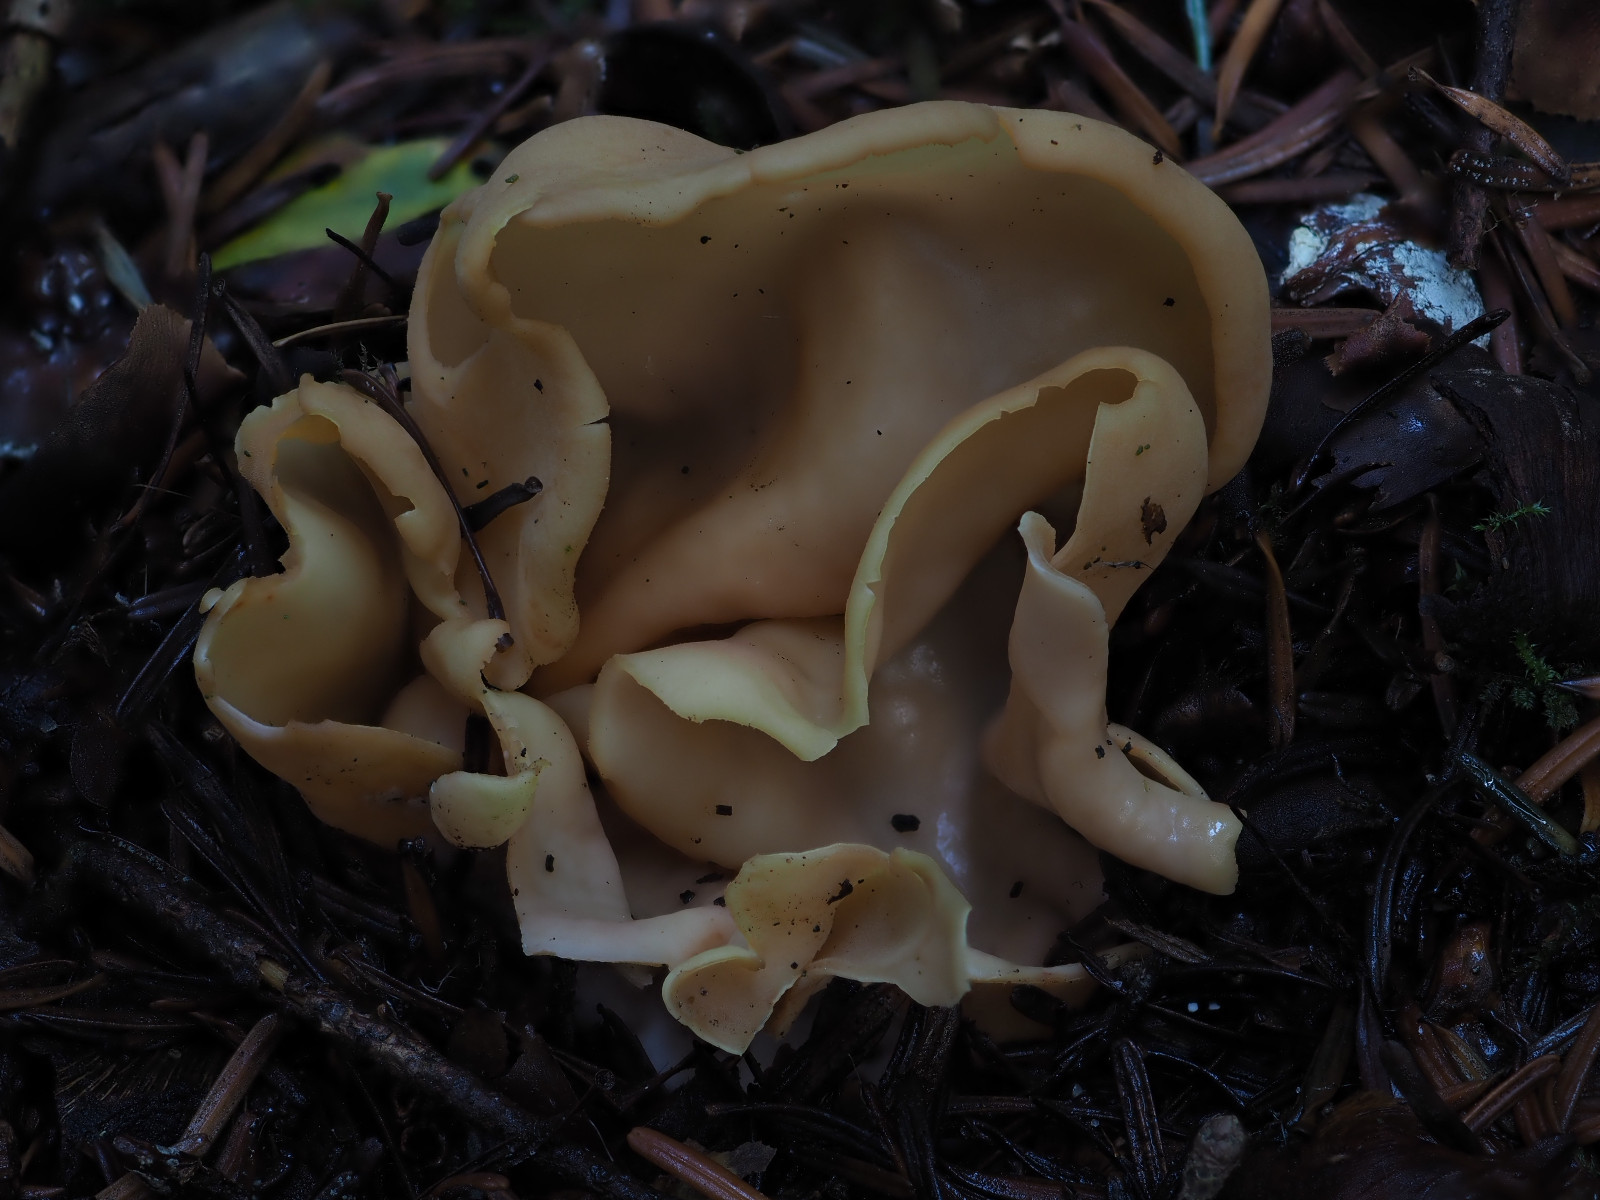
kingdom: Fungi
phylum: Ascomycota
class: Pezizomycetes
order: Pezizales
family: Otideaceae
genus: Otidea
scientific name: Otidea onotica
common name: æsel-ørebæger
